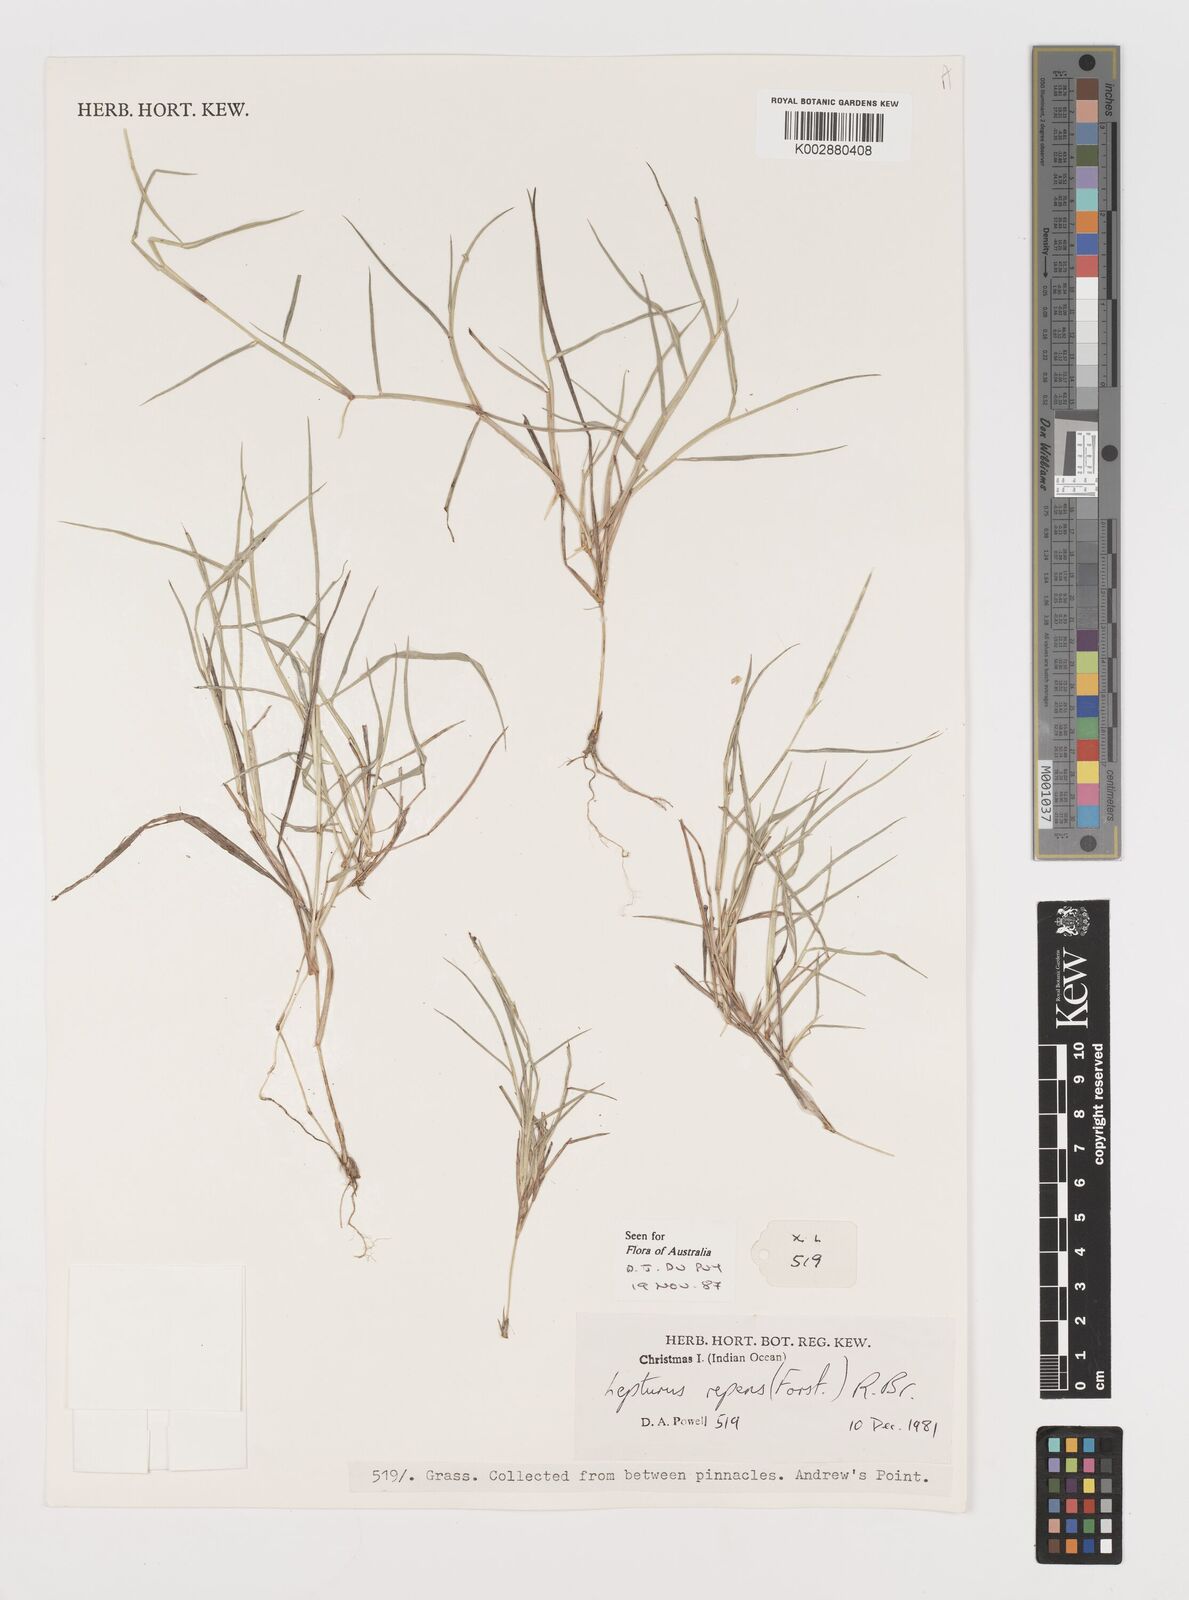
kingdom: Plantae
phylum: Tracheophyta
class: Liliopsida
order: Poales
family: Poaceae
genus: Lepturus
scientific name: Lepturus repens
